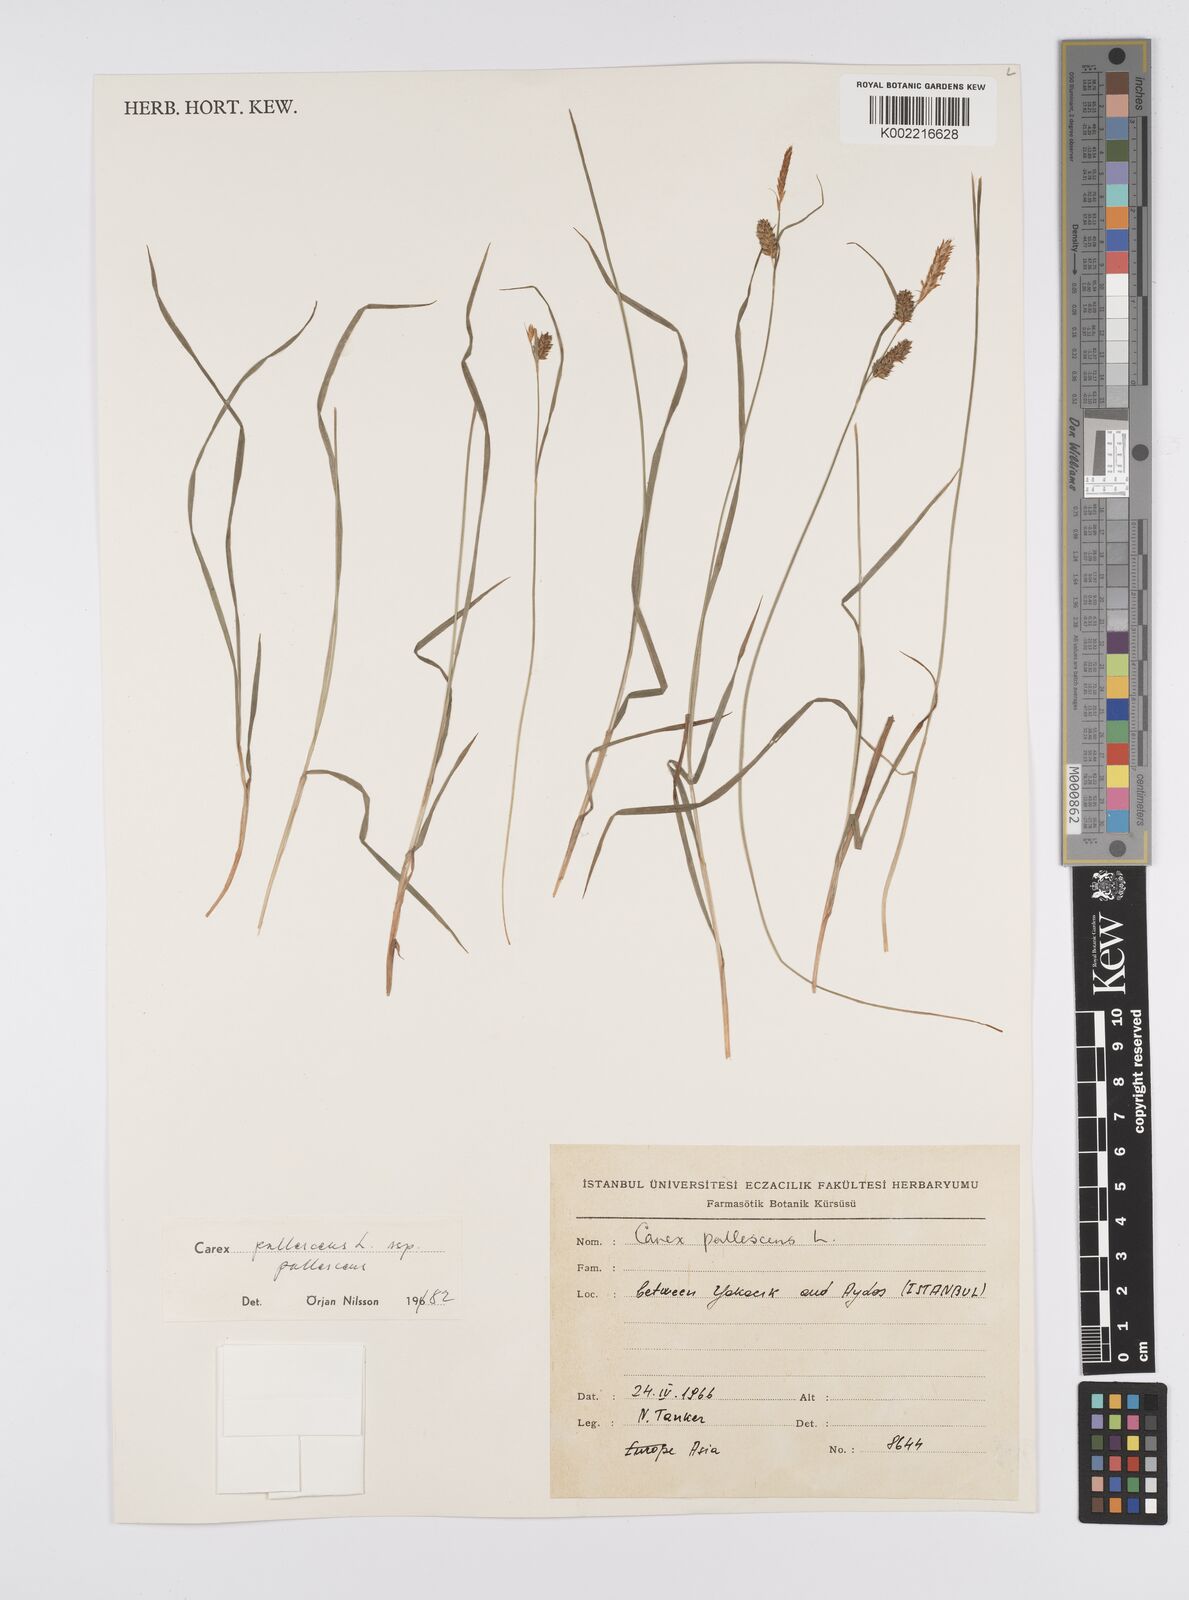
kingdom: Plantae
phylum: Tracheophyta
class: Liliopsida
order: Poales
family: Cyperaceae
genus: Carex
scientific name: Carex pallescens
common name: Pale sedge
